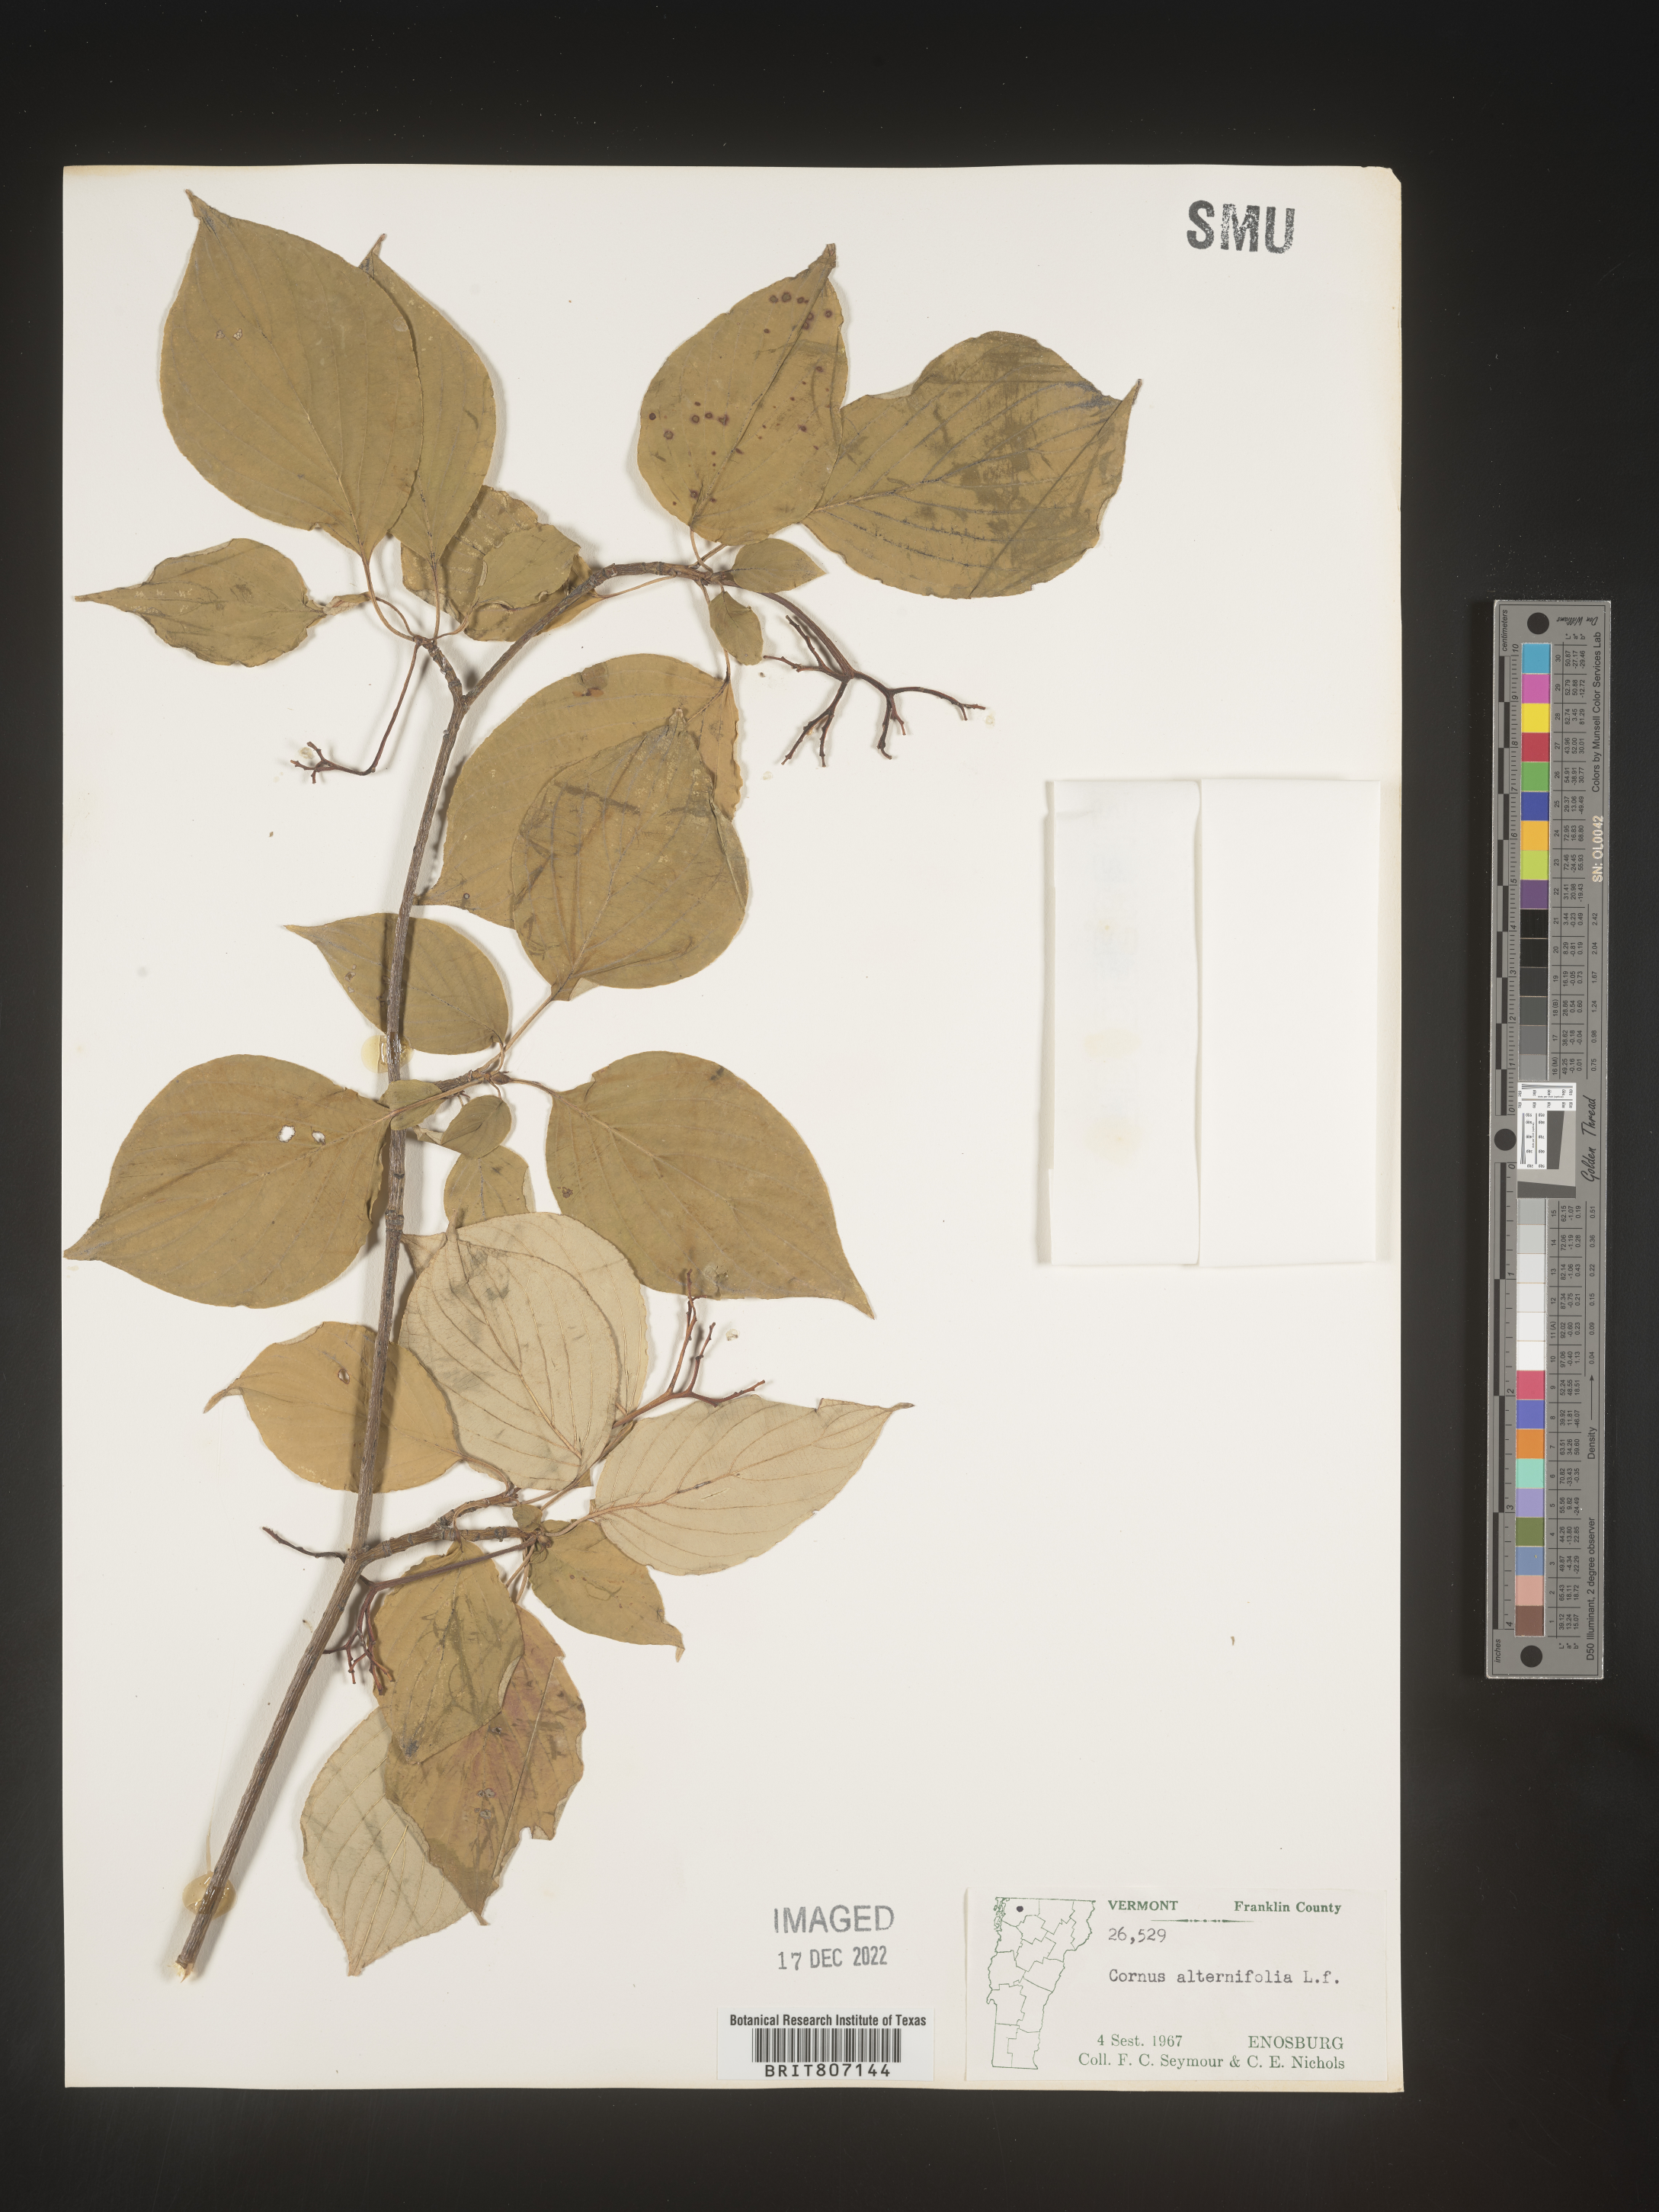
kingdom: Plantae
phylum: Tracheophyta
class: Magnoliopsida
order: Cornales
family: Cornaceae
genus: Cornus
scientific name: Cornus alternifolia
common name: Pagoda dogwood
